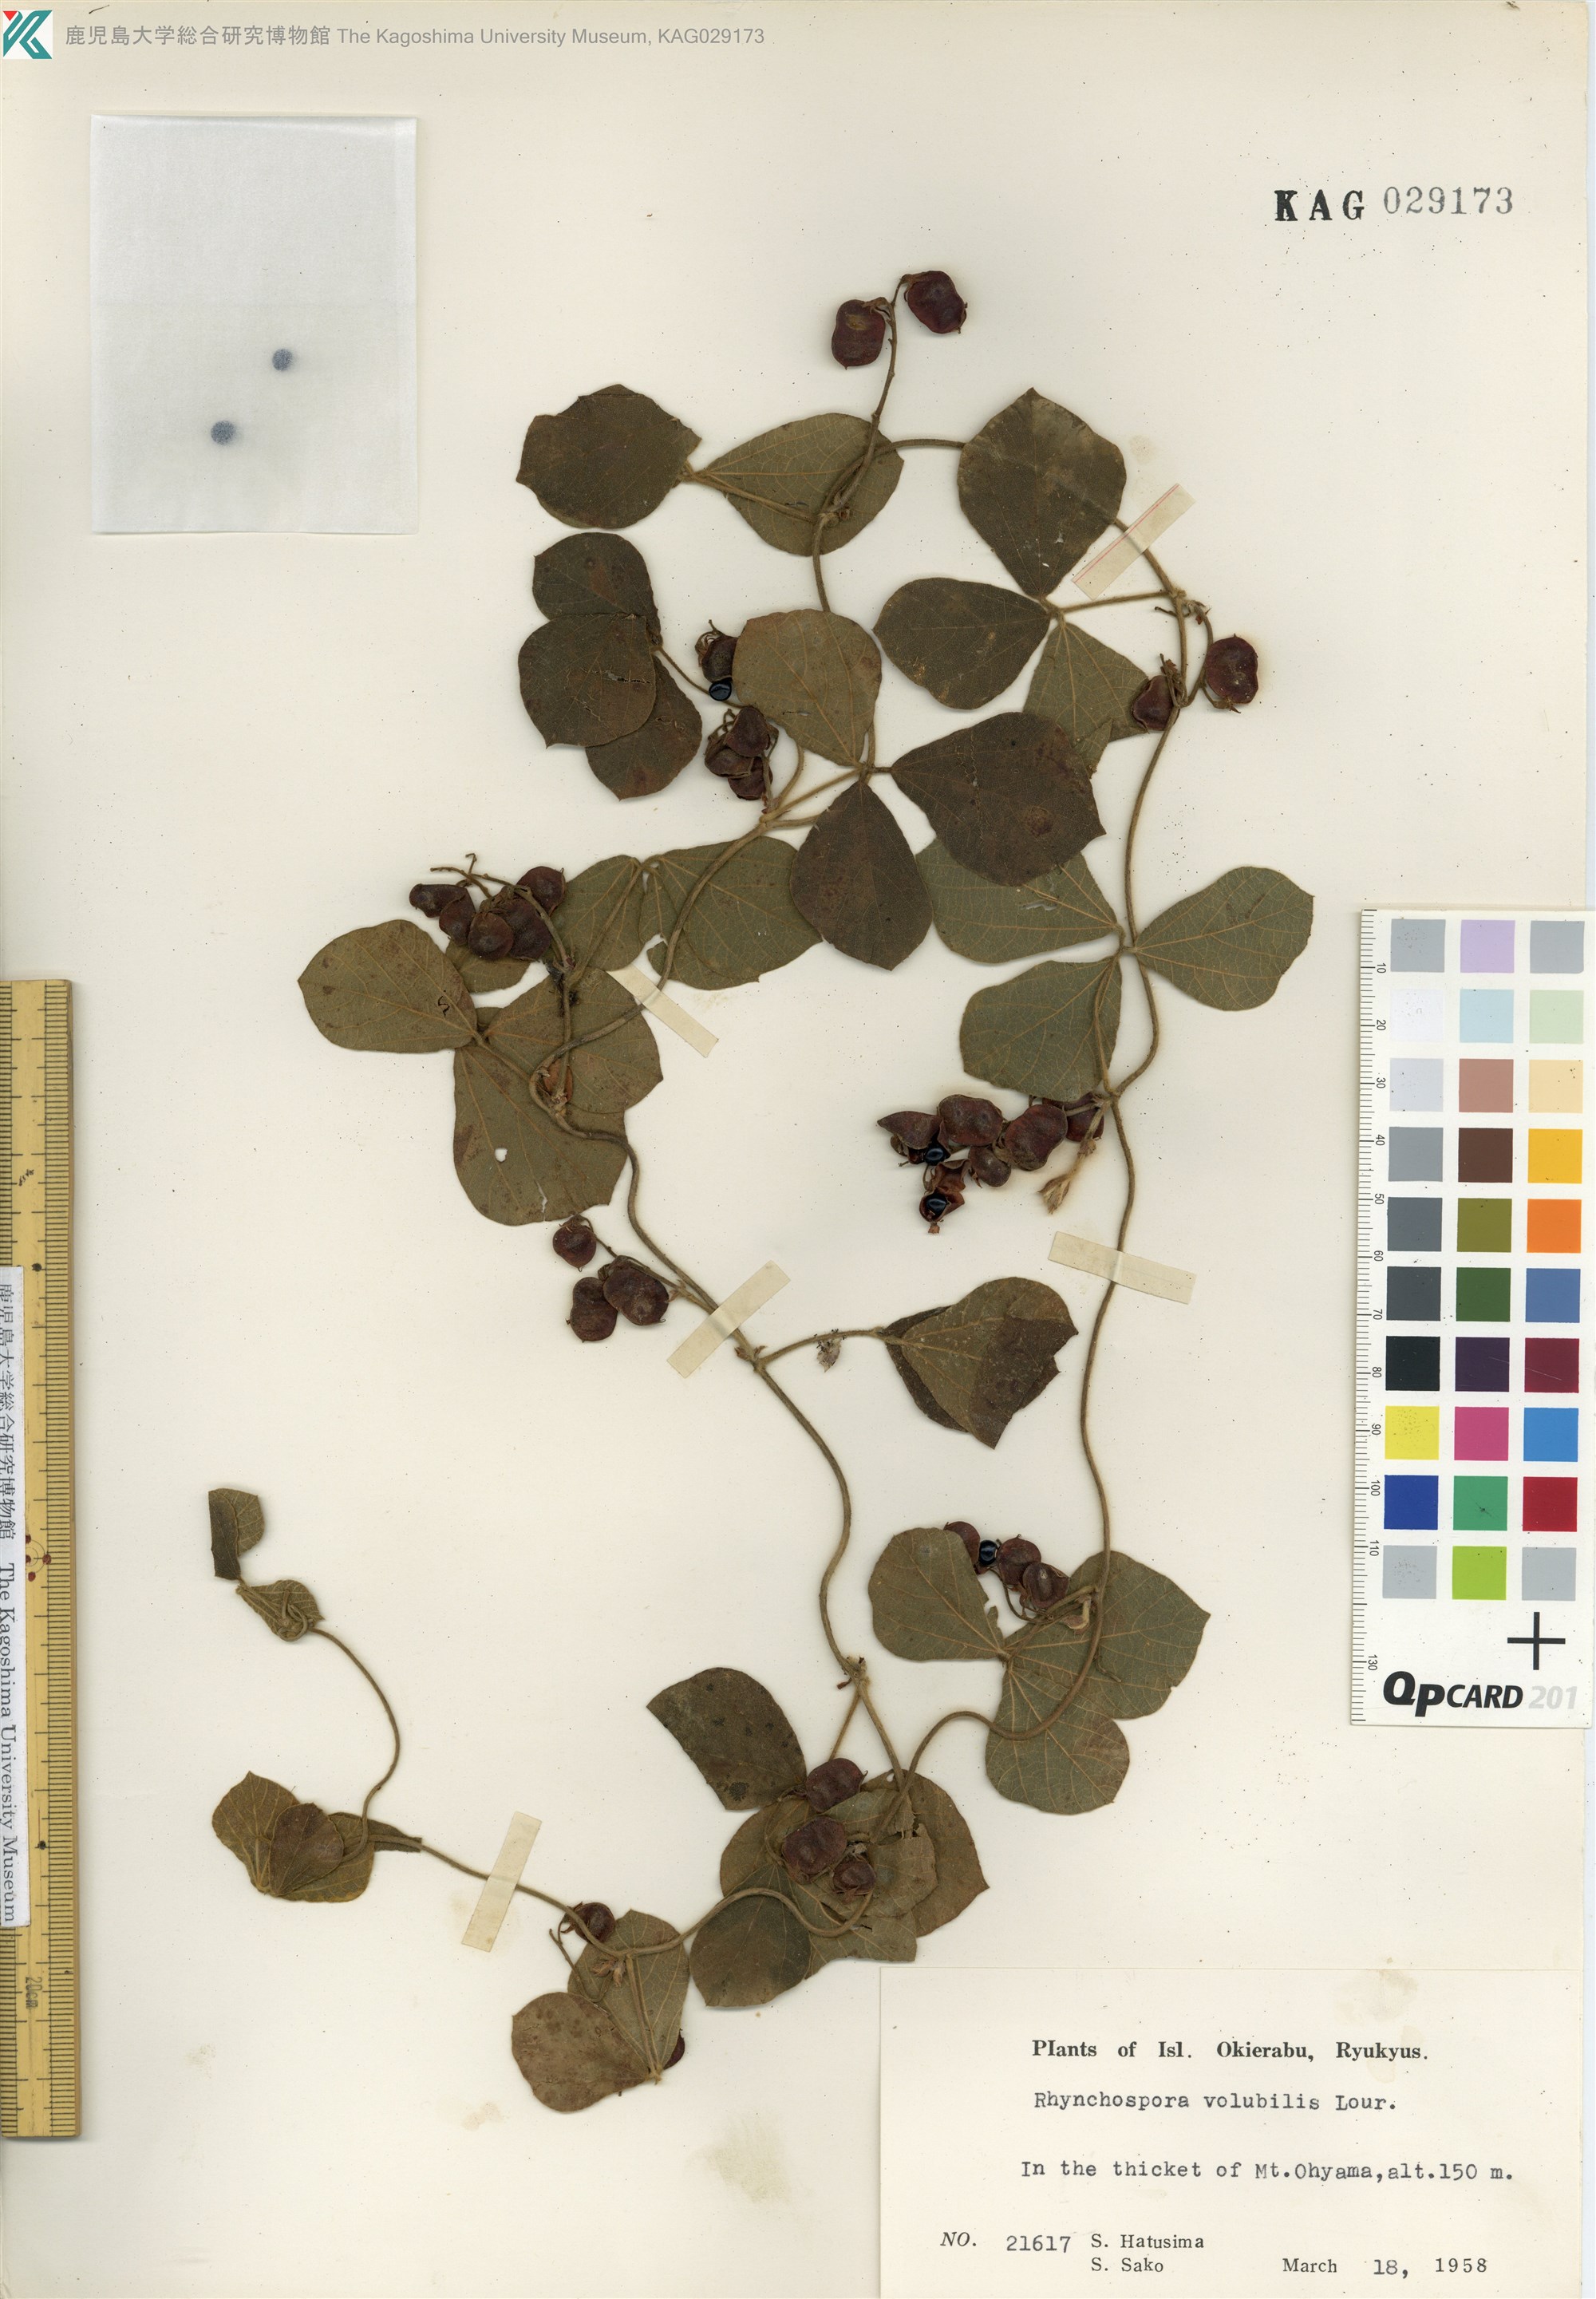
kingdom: Plantae
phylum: Tracheophyta
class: Magnoliopsida
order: Fabales
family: Fabaceae
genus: Rhynchosia
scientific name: Rhynchosia volubilis
